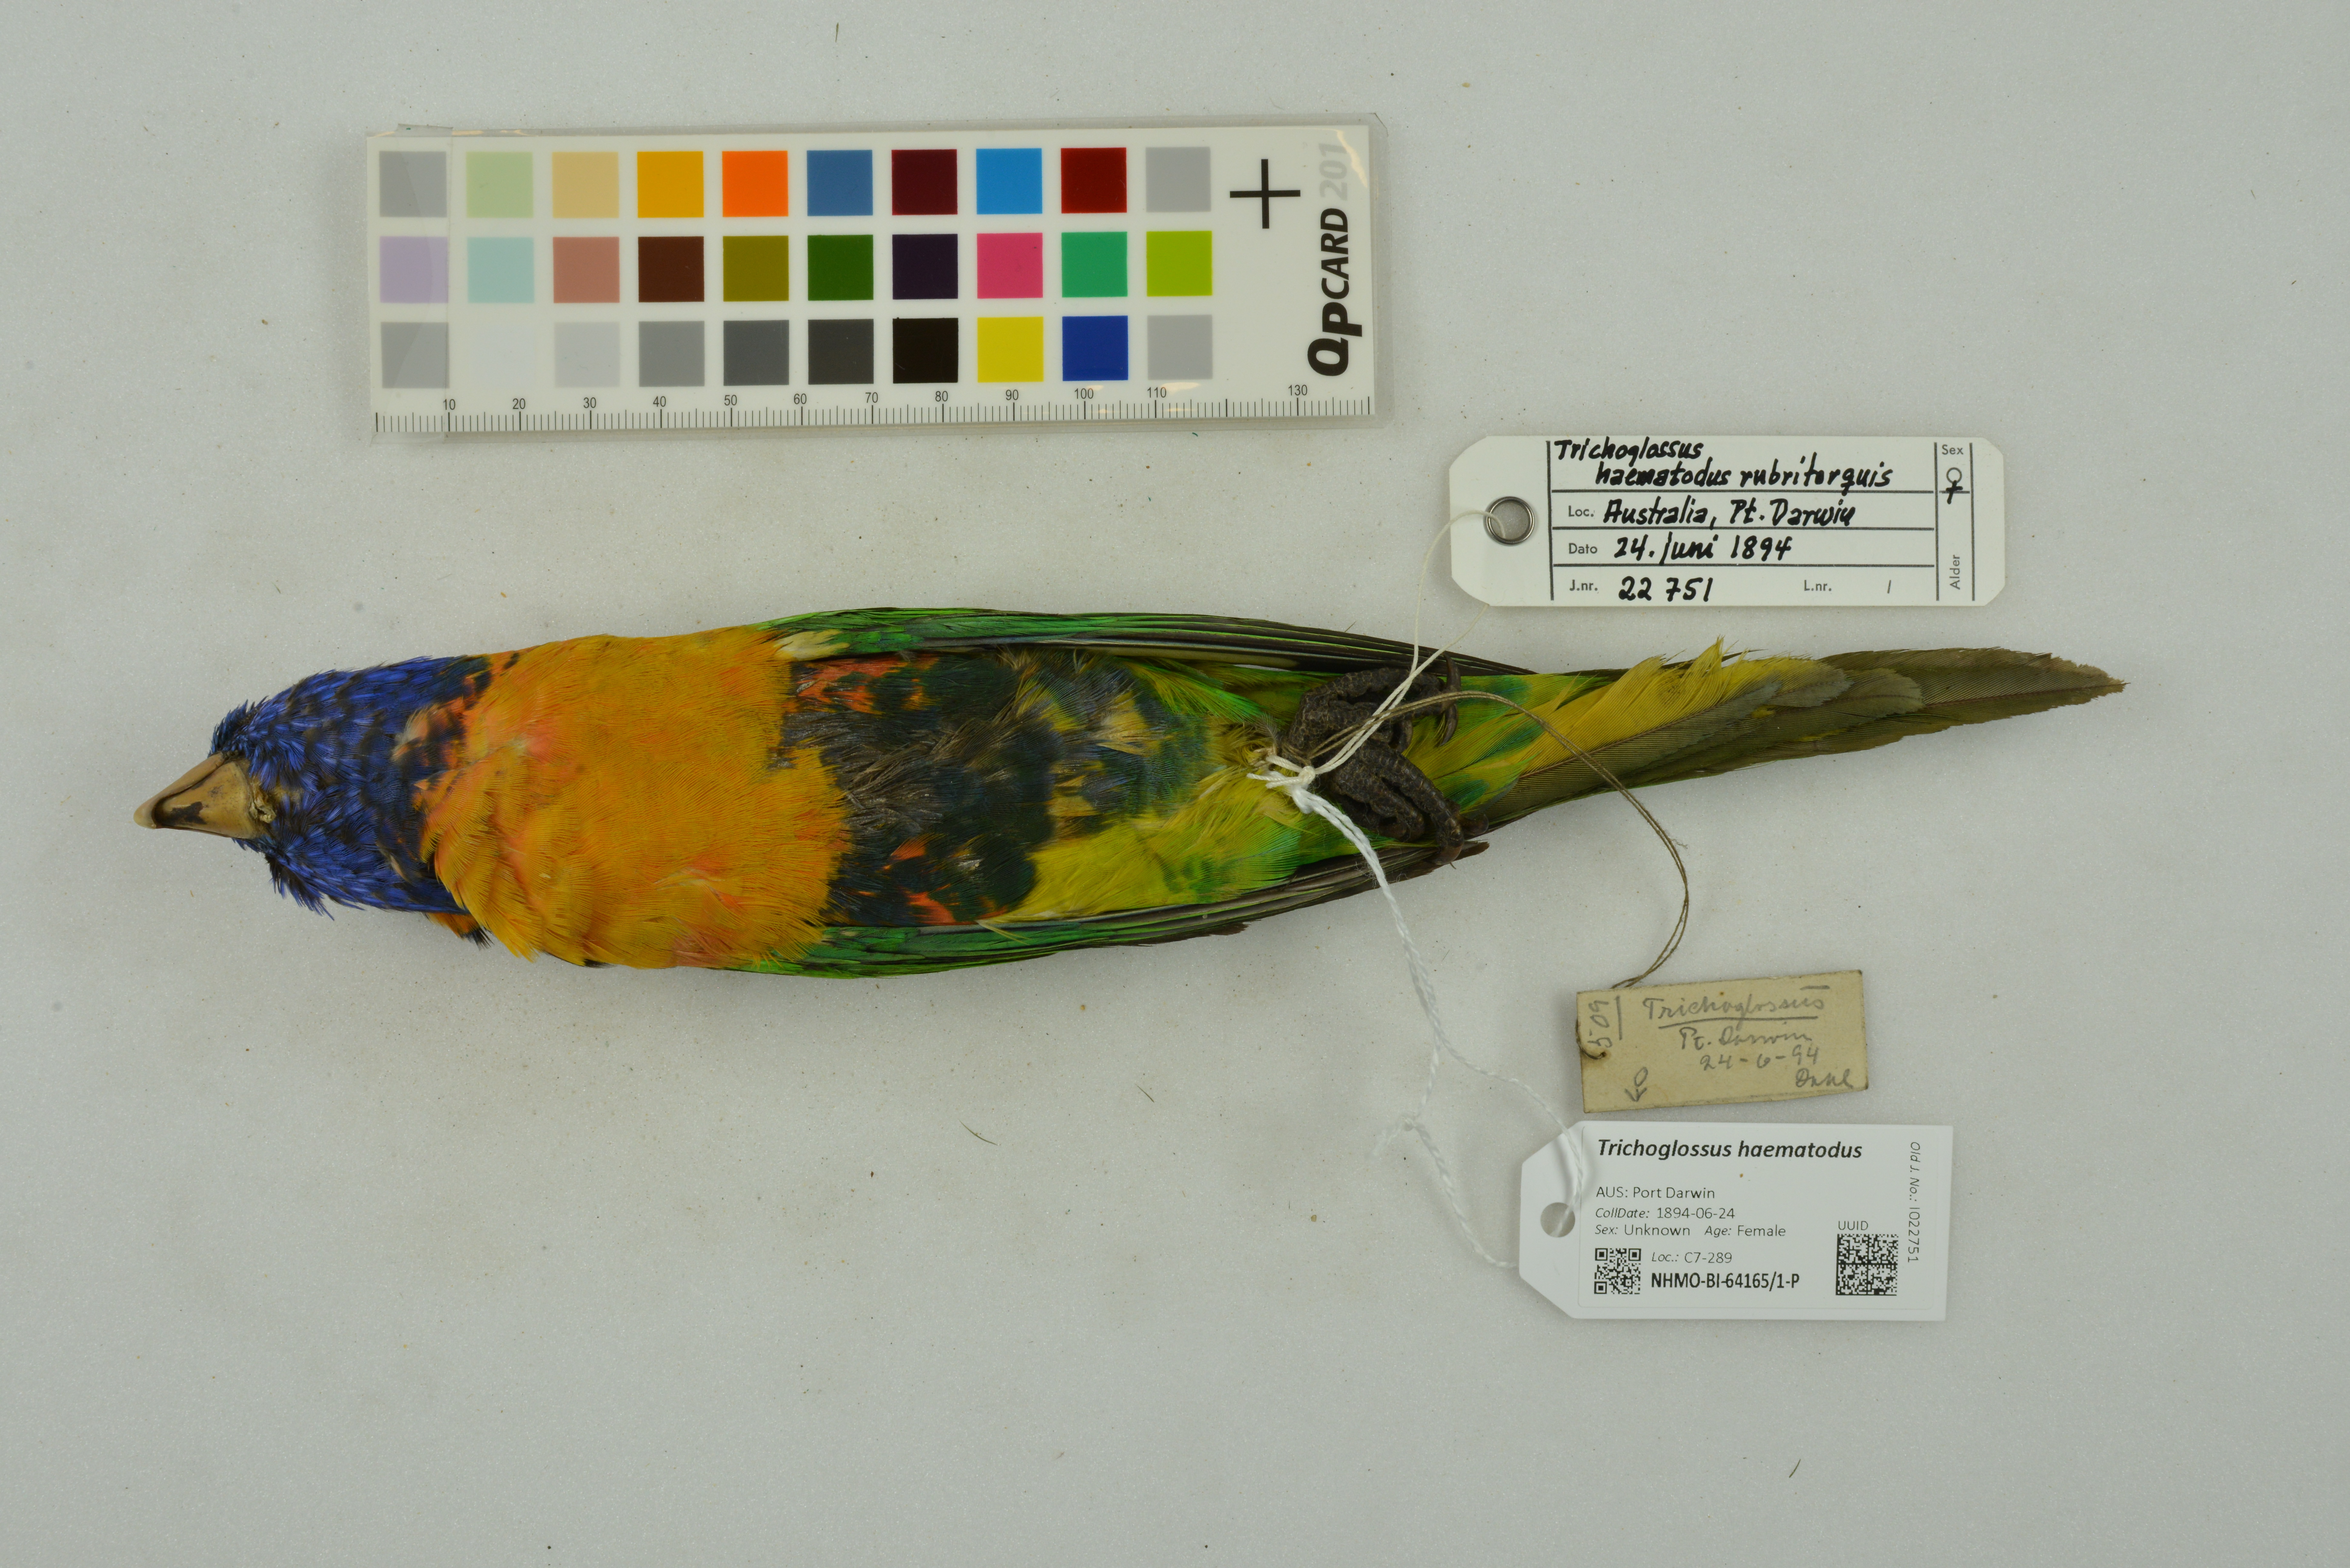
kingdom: Animalia
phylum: Chordata
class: Aves
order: Psittaciformes
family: Psittacidae
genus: Trichoglossus
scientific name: Trichoglossus haematodus
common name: Coconut lorikeet
